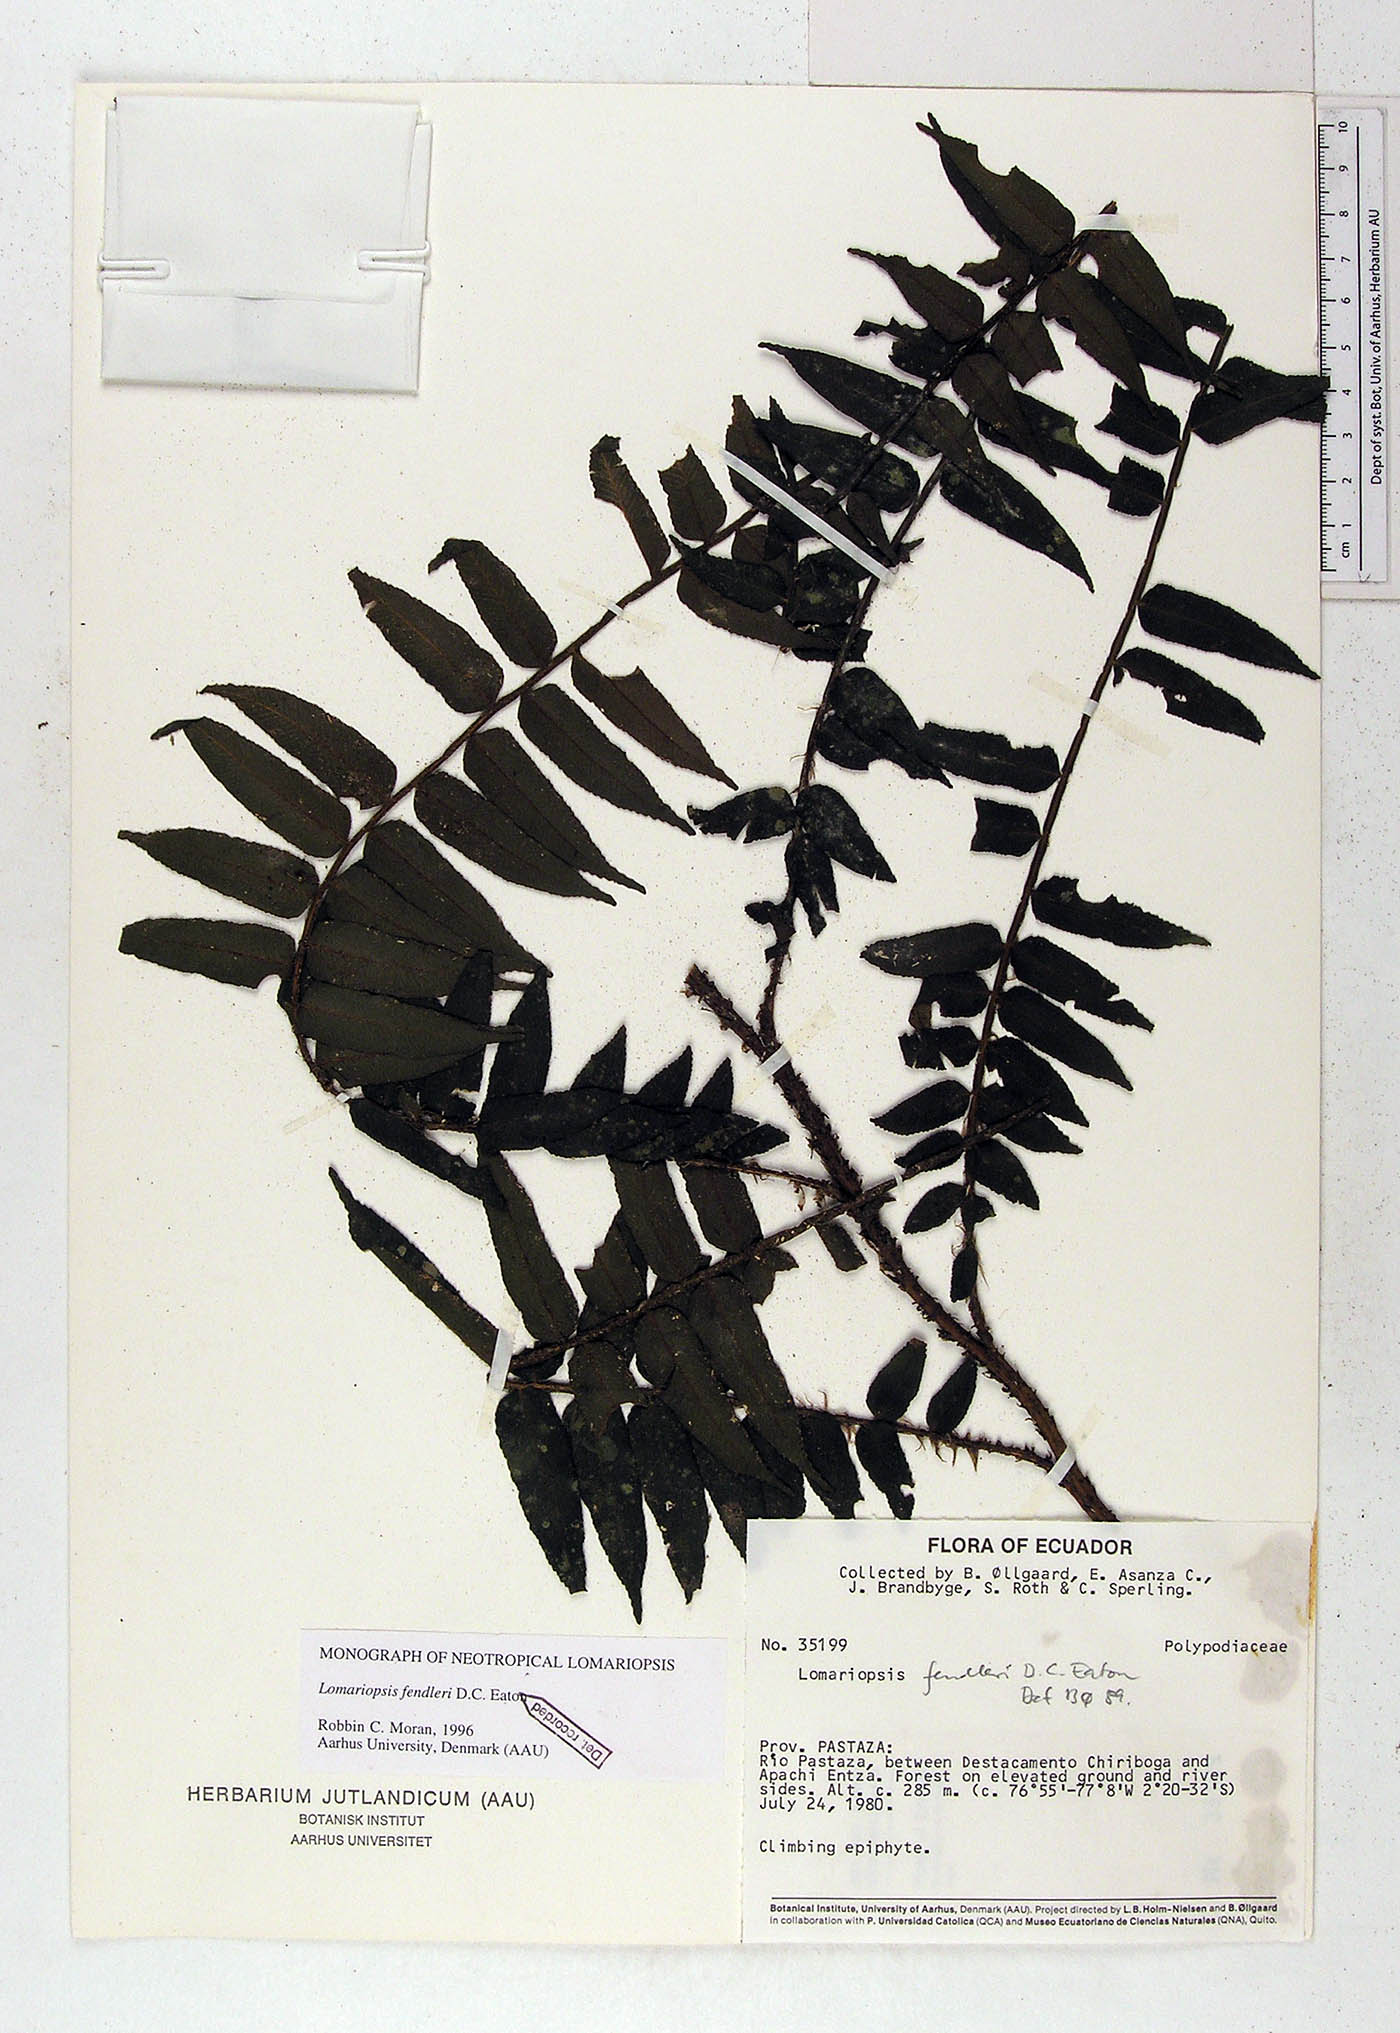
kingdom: Plantae
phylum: Tracheophyta
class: Polypodiopsida
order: Polypodiales
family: Lomariopsidaceae
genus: Lomariopsis
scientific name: Lomariopsis fendleri
